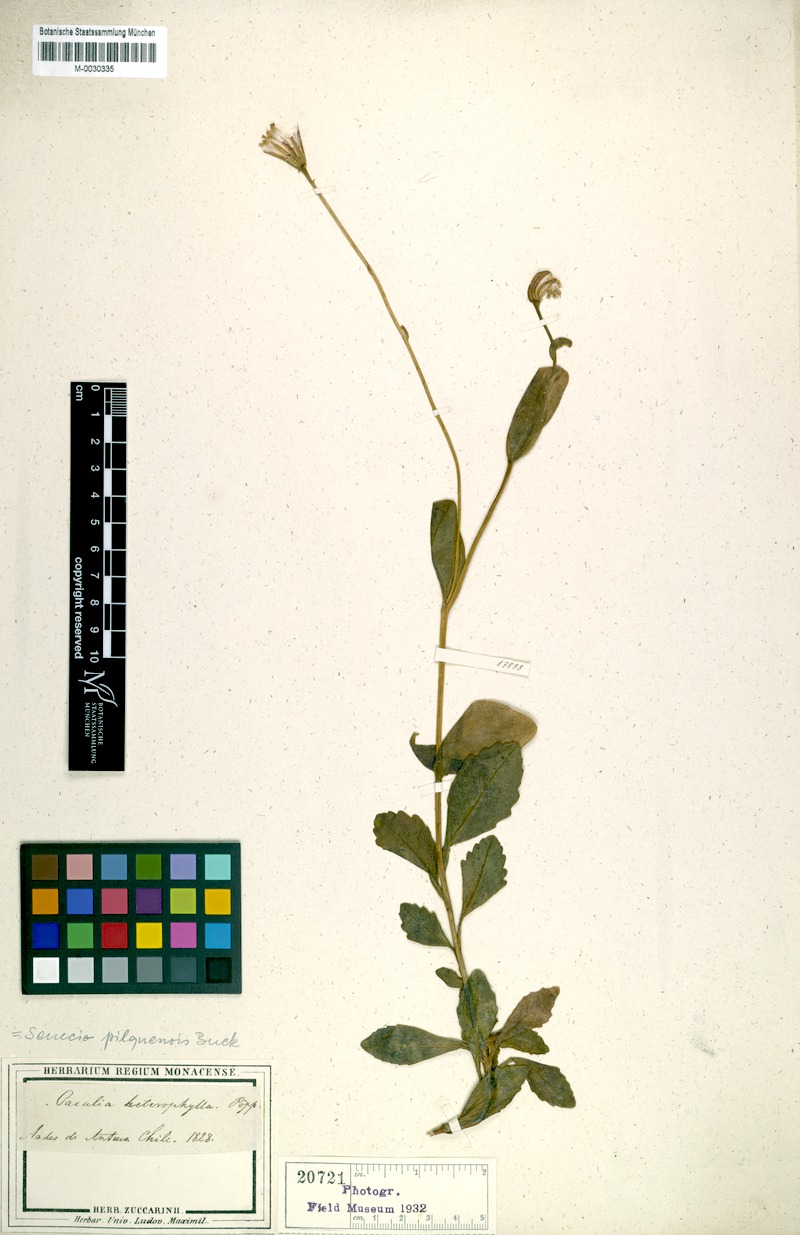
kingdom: Plantae
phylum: Tracheophyta
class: Magnoliopsida
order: Lamiales
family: Stilbaceae
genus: Stilbe
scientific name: Stilbe albiflora
